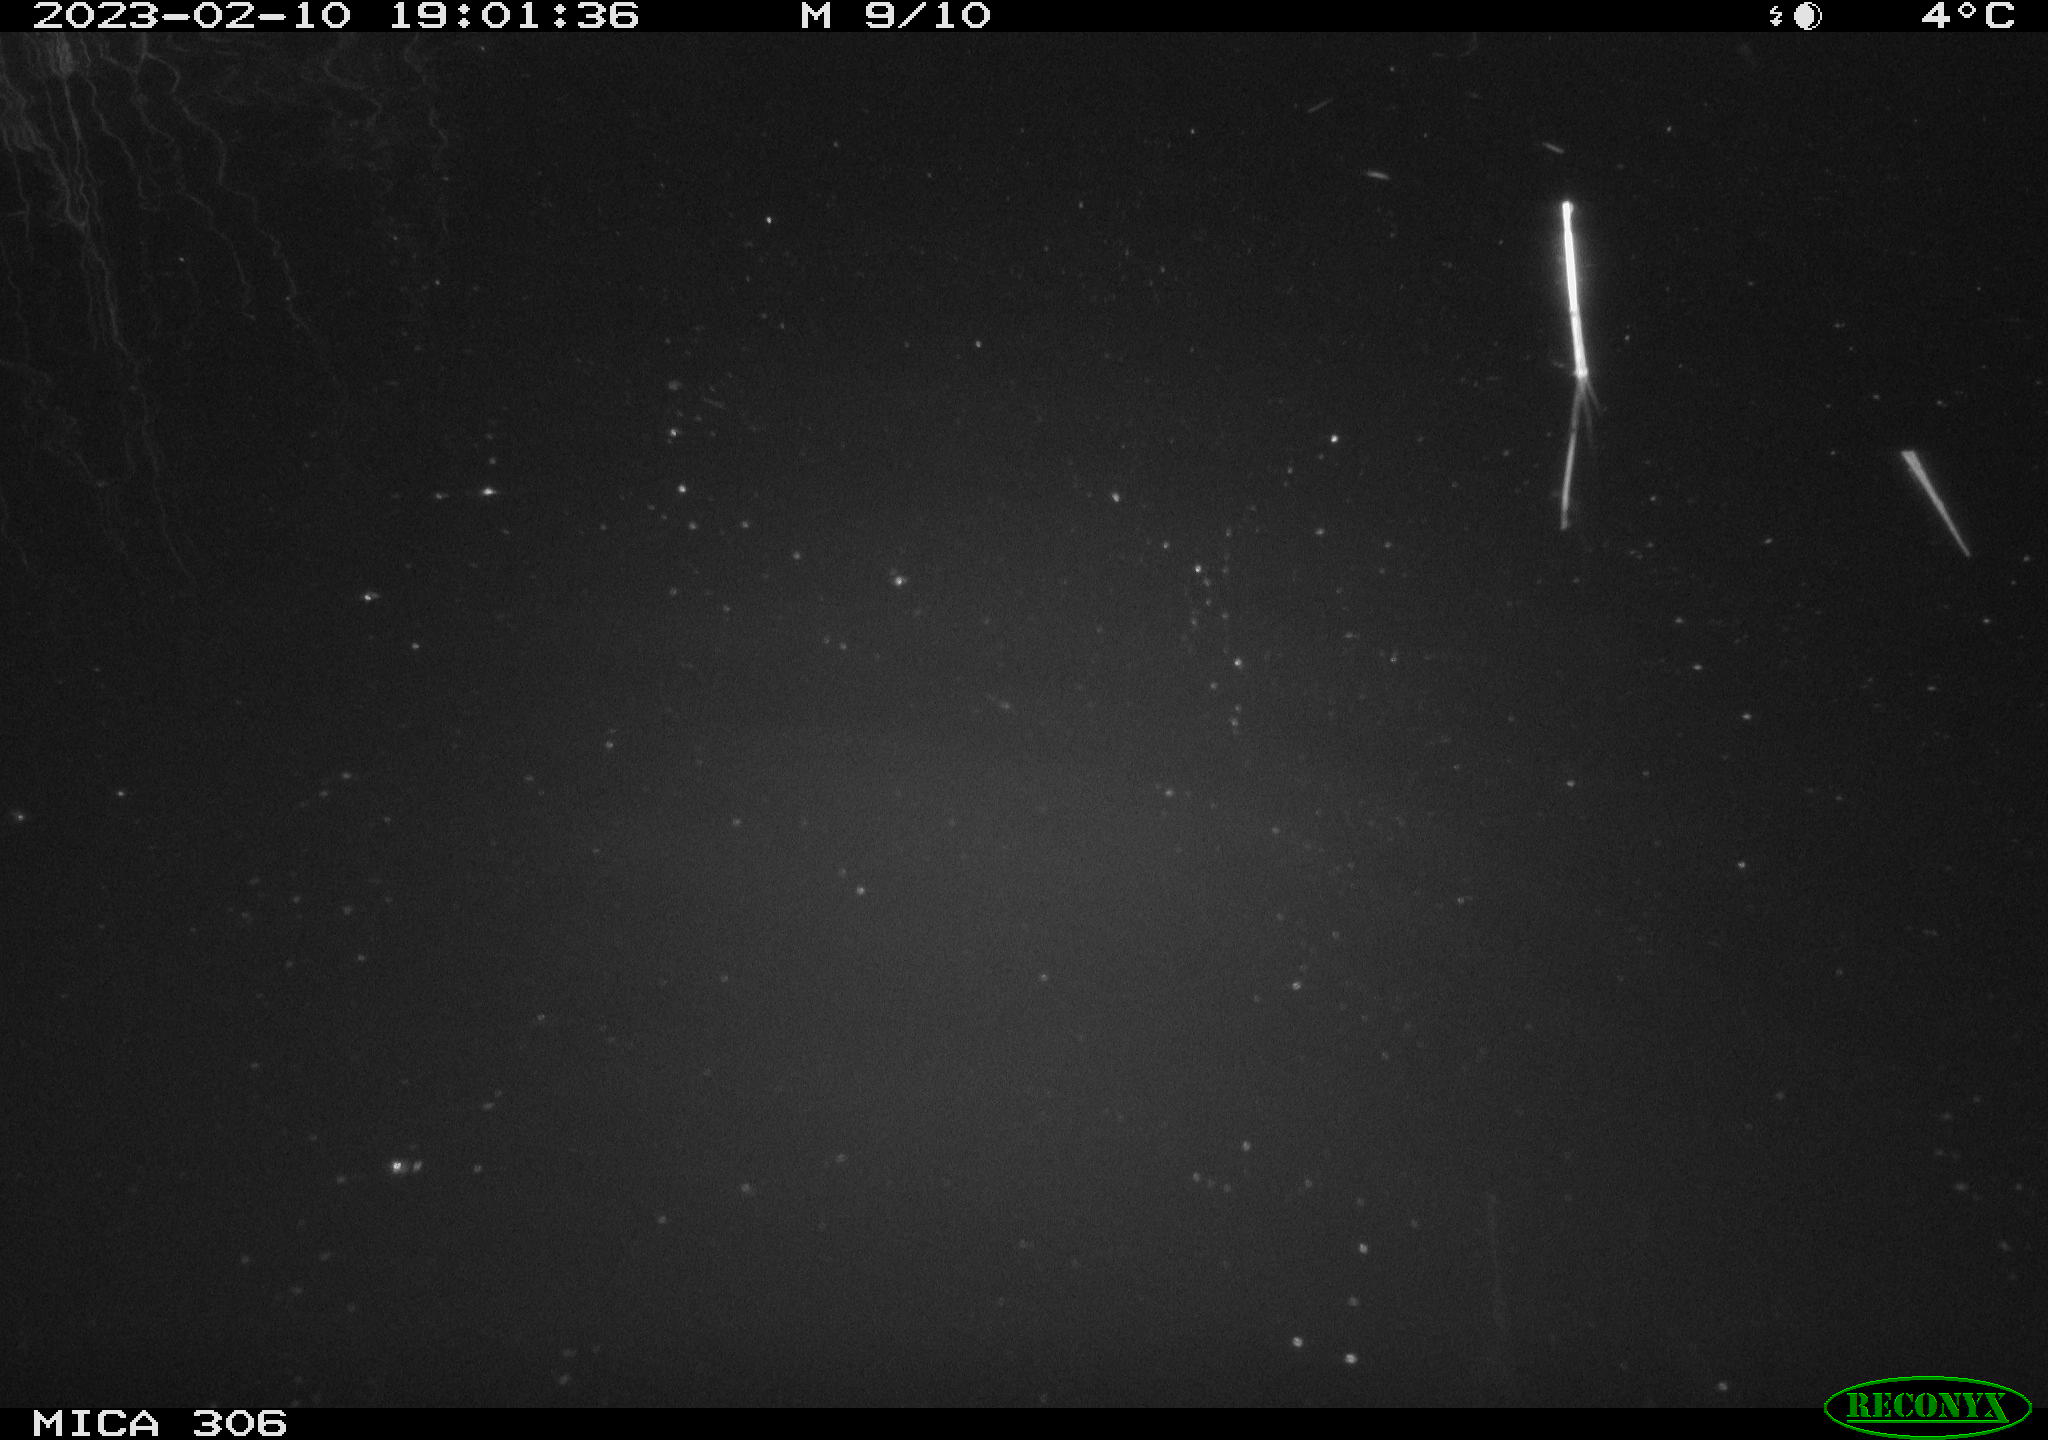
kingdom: Animalia
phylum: Chordata
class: Mammalia
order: Rodentia
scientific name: Rodentia
